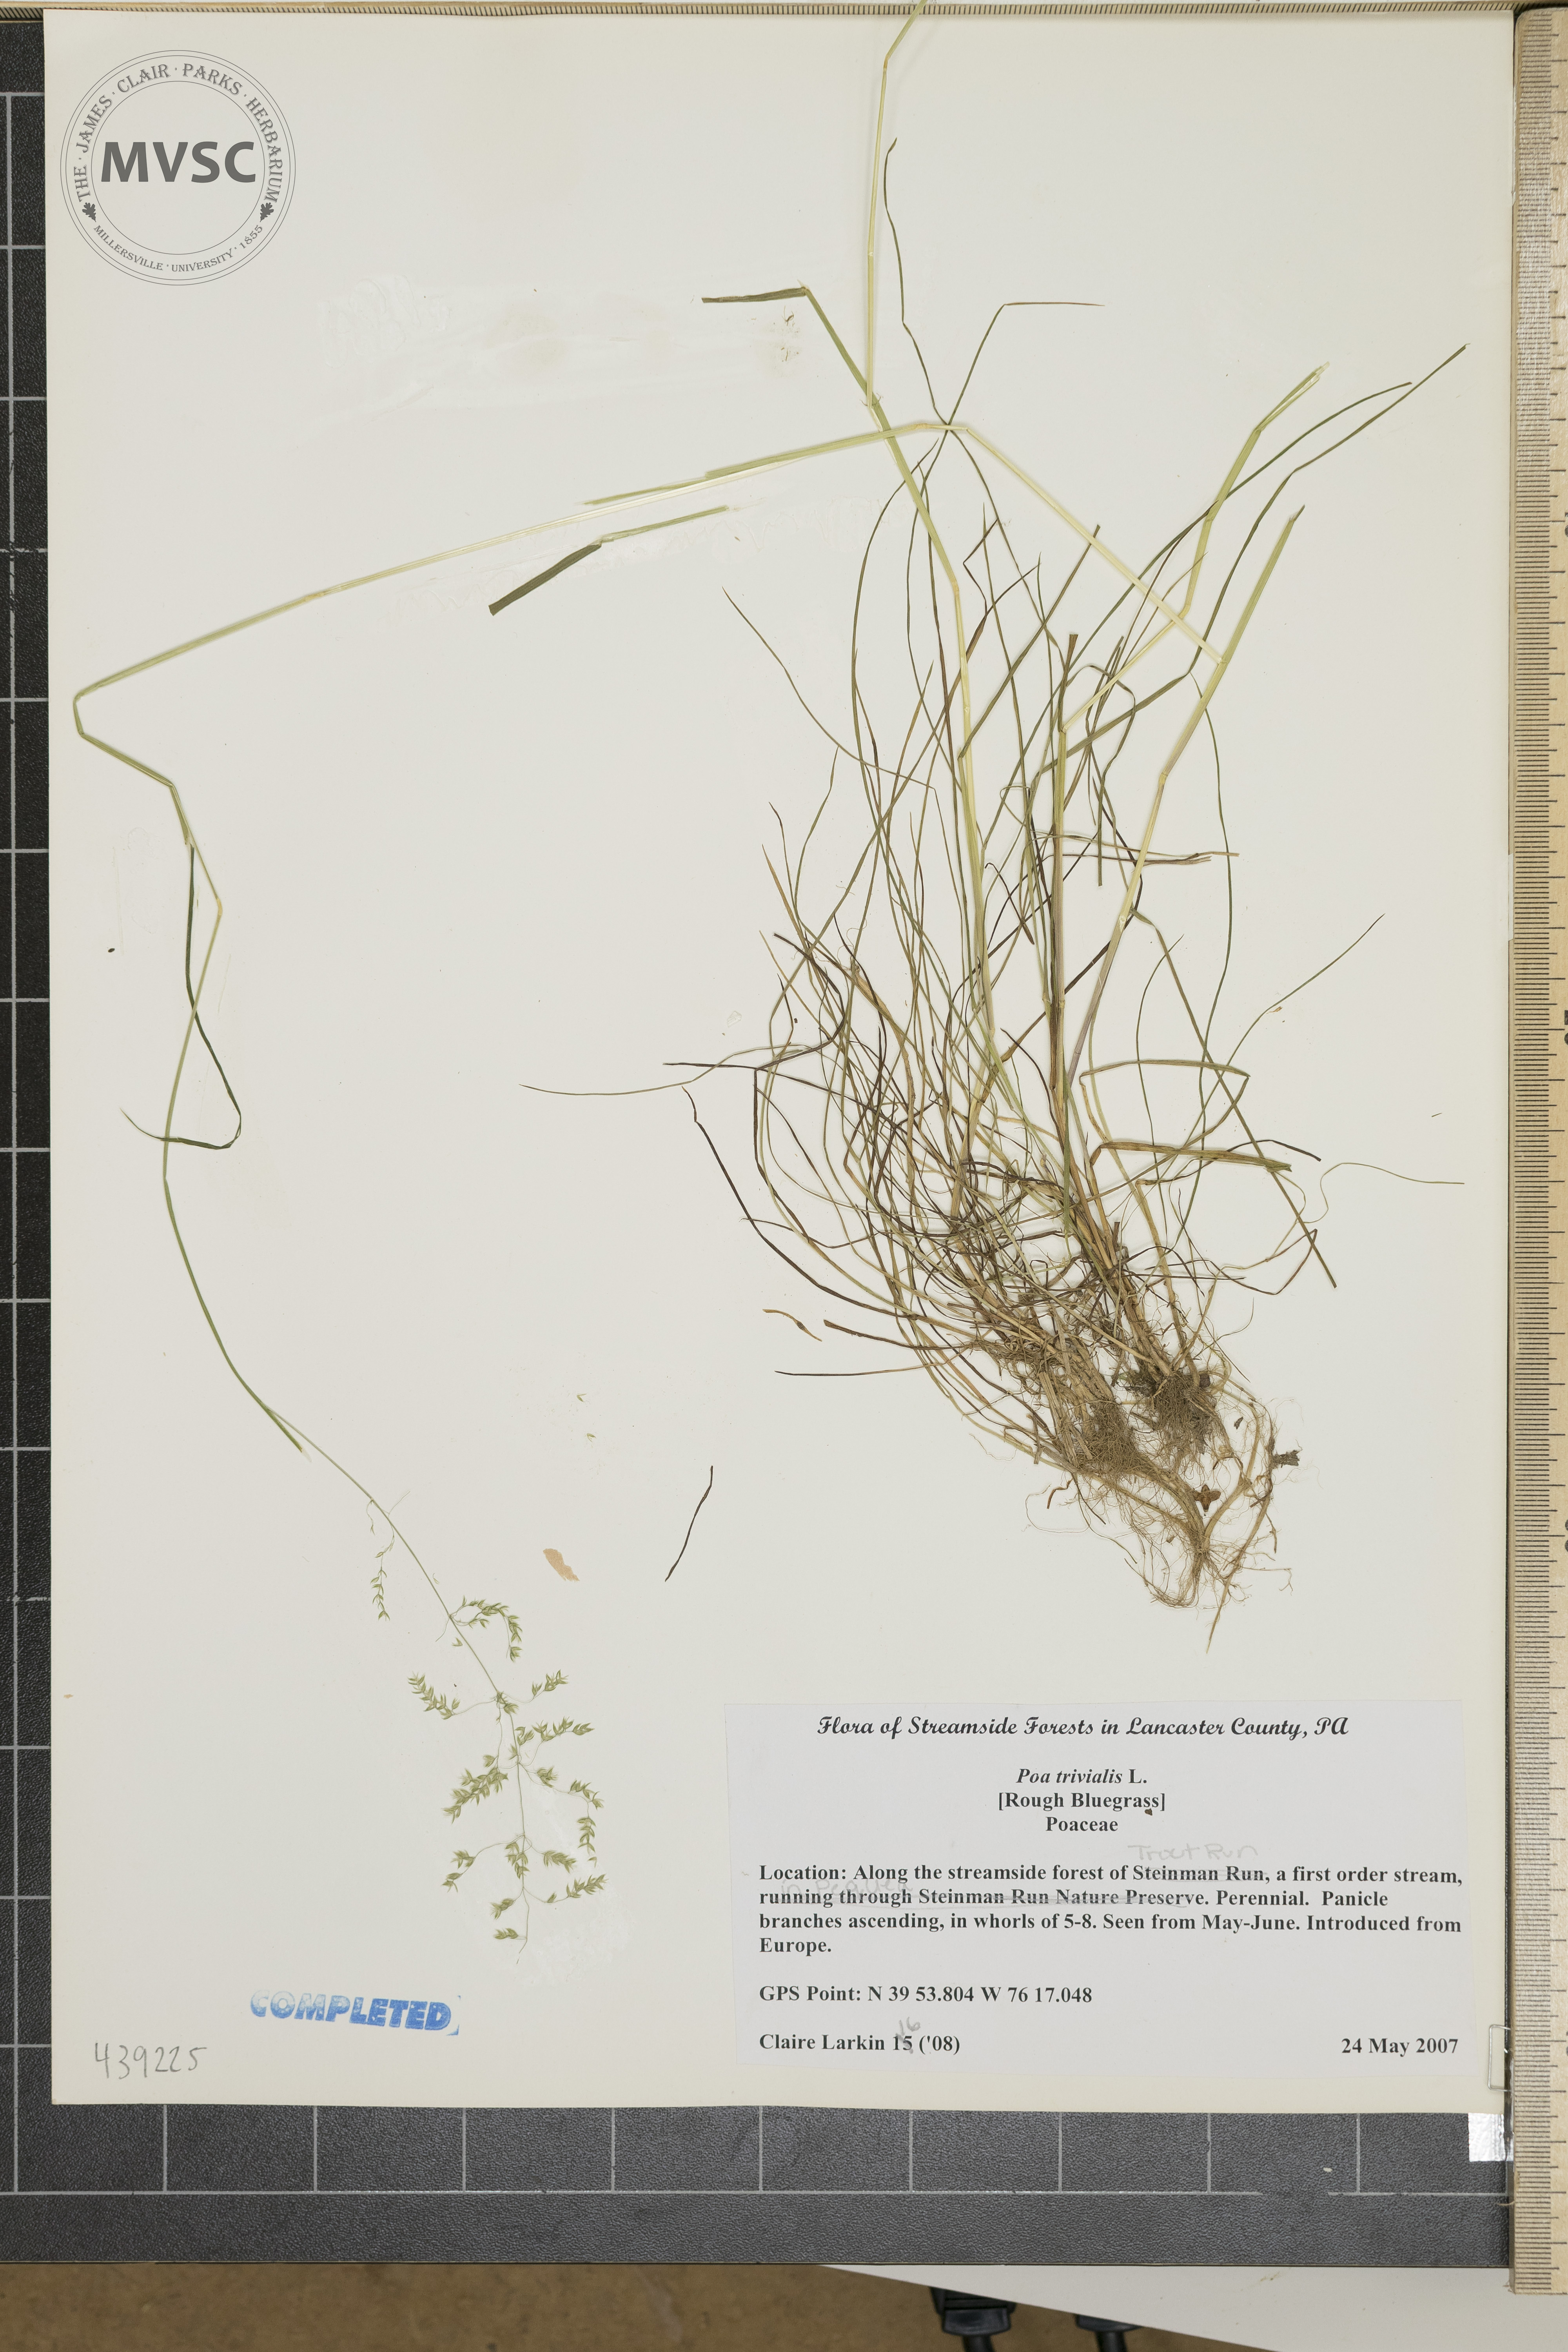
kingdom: Plantae
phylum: Tracheophyta
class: Liliopsida
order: Poales
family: Poaceae
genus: Poa
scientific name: Poa trivialis
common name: Rough bluegrass
